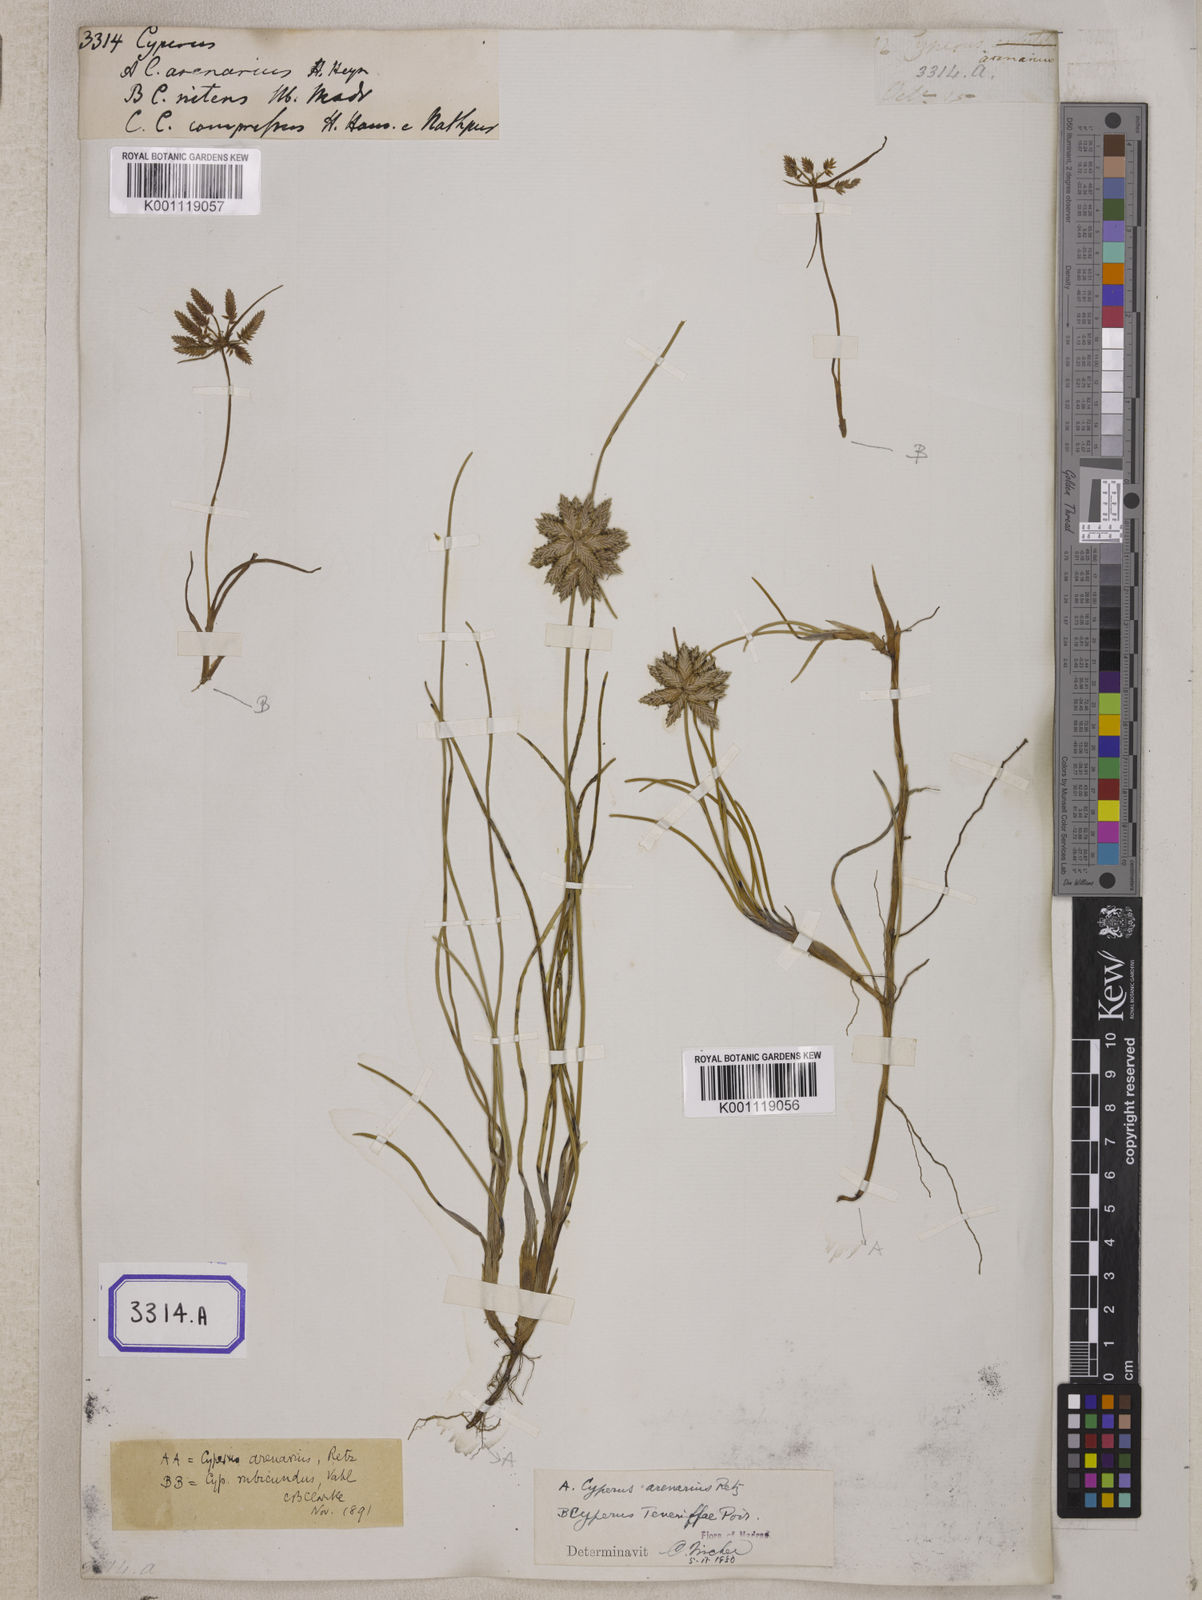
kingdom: Plantae
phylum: Tracheophyta
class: Liliopsida
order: Poales
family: Cyperaceae
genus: Cyperus
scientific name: Cyperus
